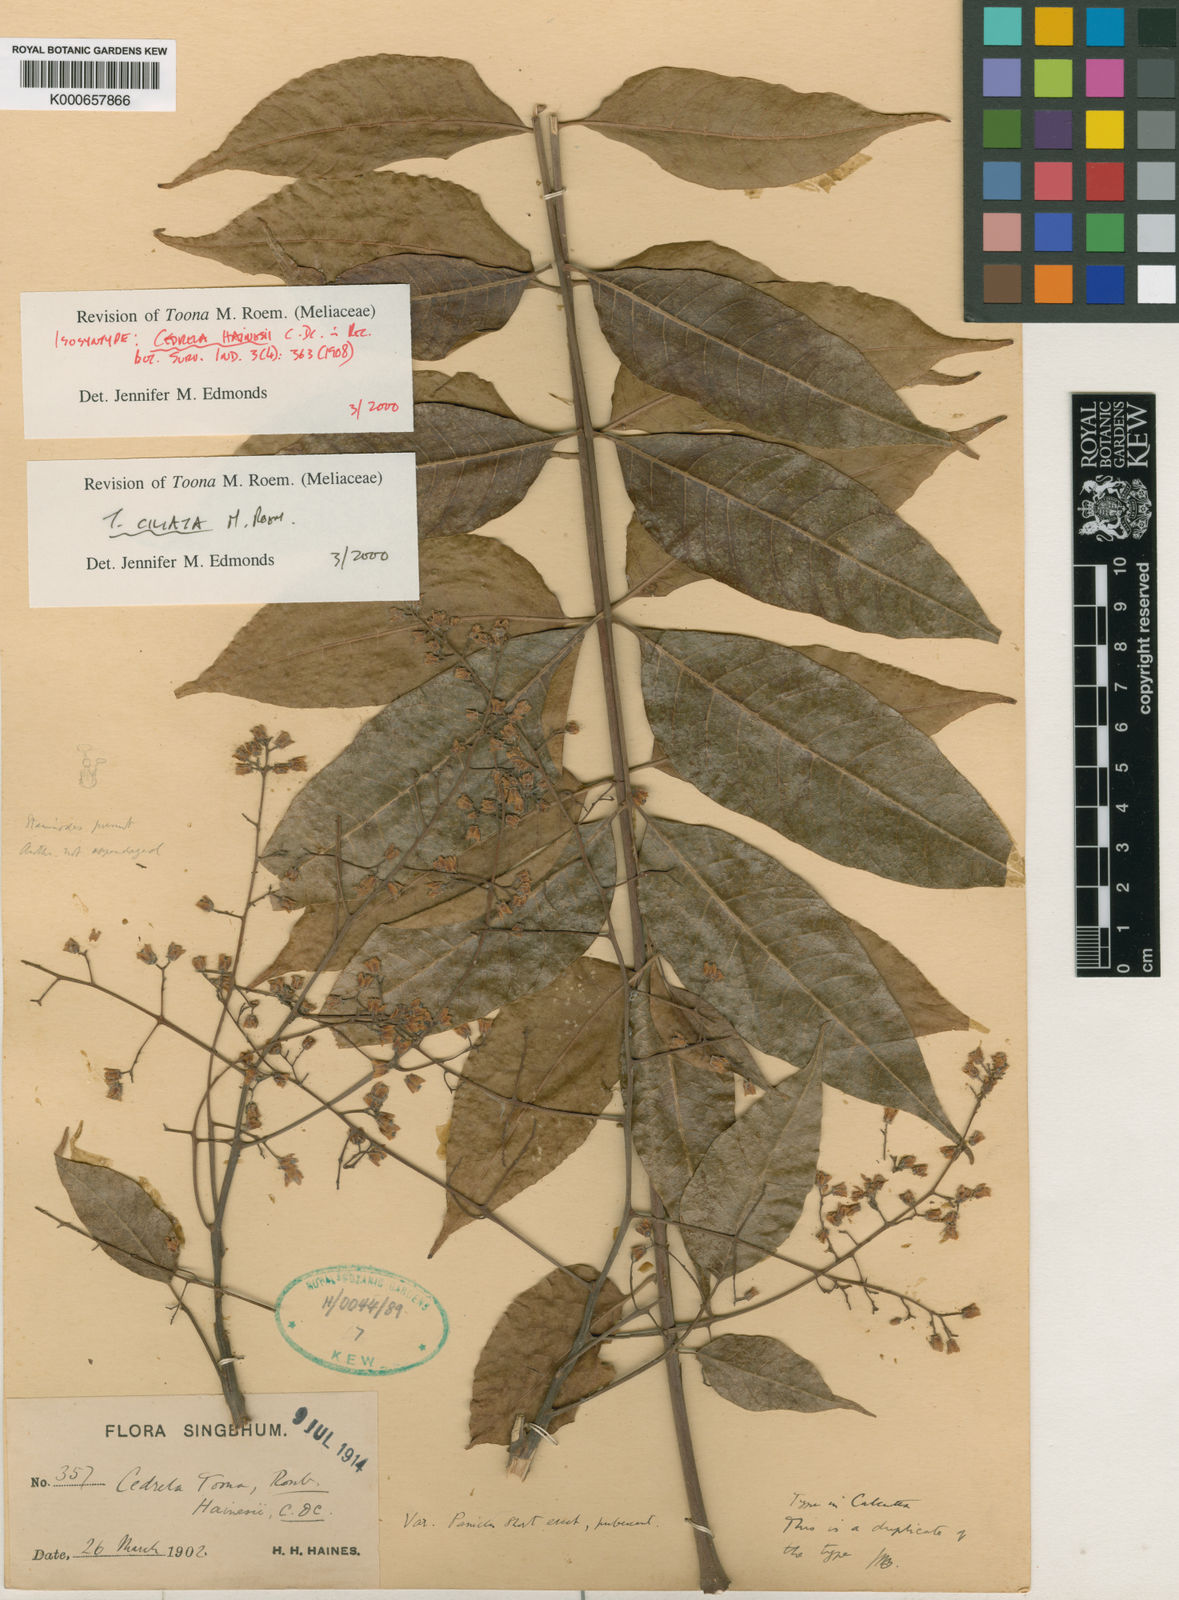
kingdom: Plantae
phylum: Tracheophyta
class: Magnoliopsida
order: Sapindales
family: Meliaceae
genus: Toona
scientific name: Toona ciliata
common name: Australian redcedar
